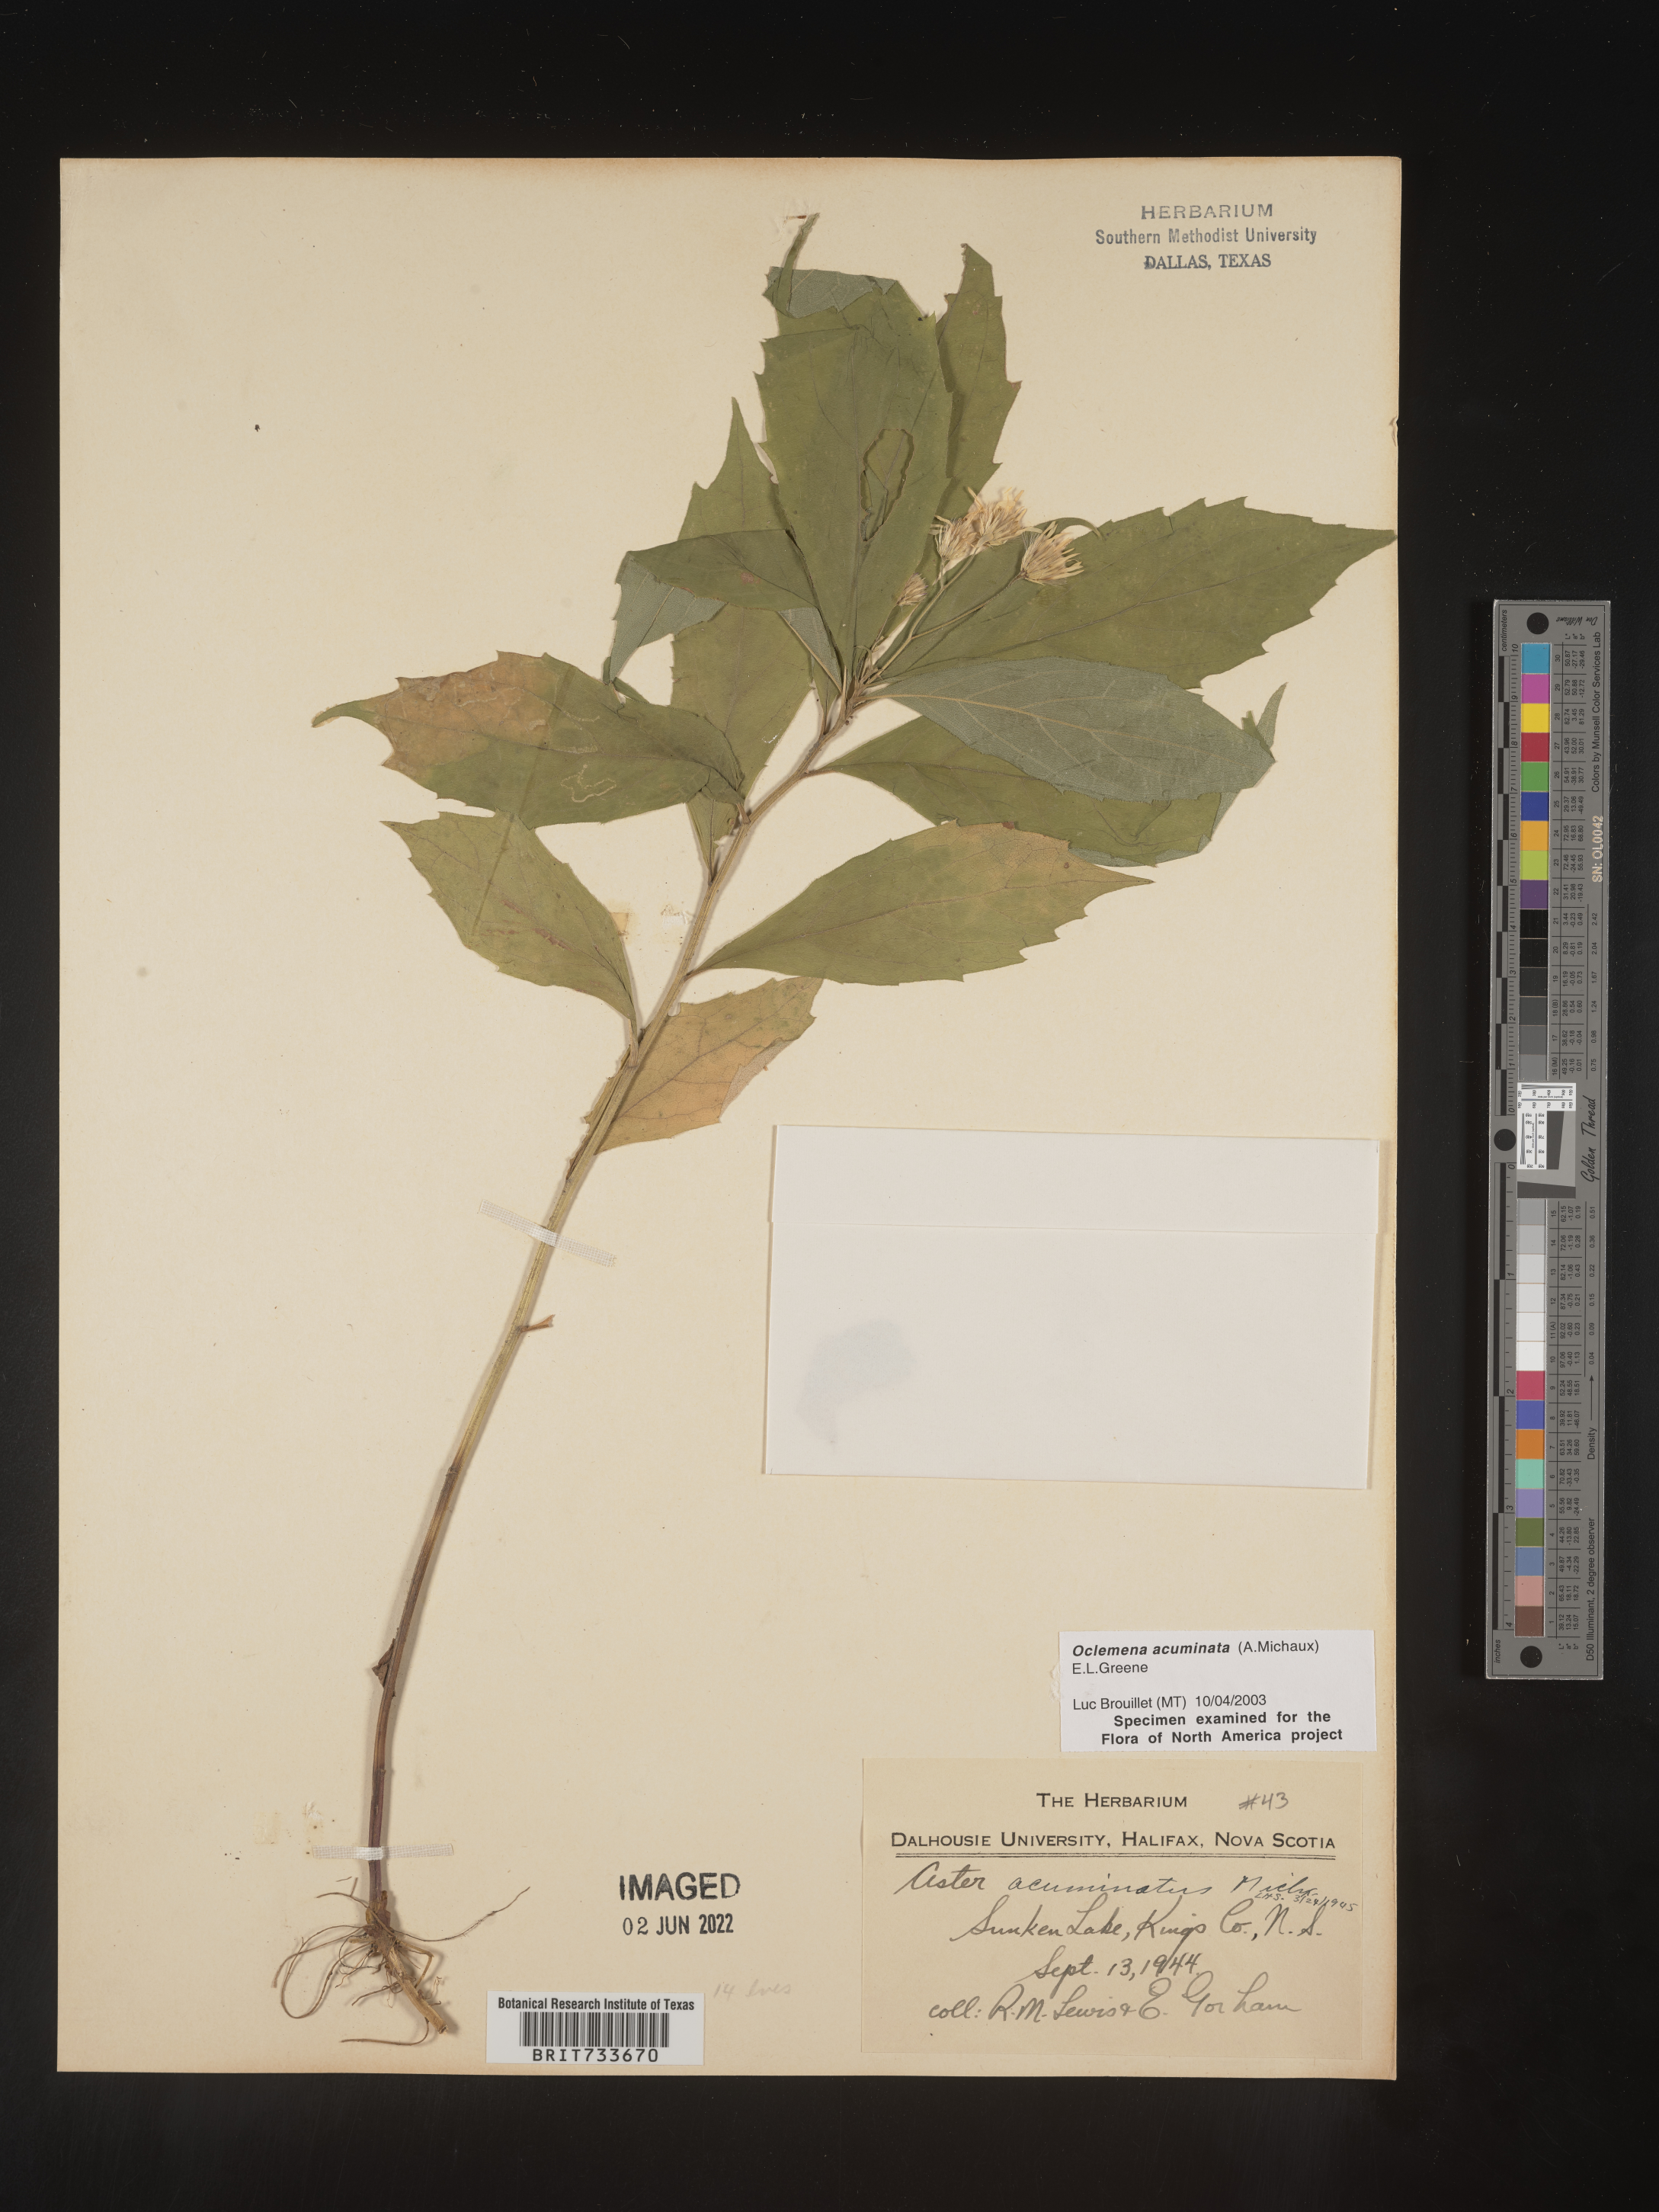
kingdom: Plantae
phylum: Tracheophyta
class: Magnoliopsida
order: Asterales
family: Asteraceae
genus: Oclemena
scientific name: Oclemena acuminata
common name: Mountain aster
